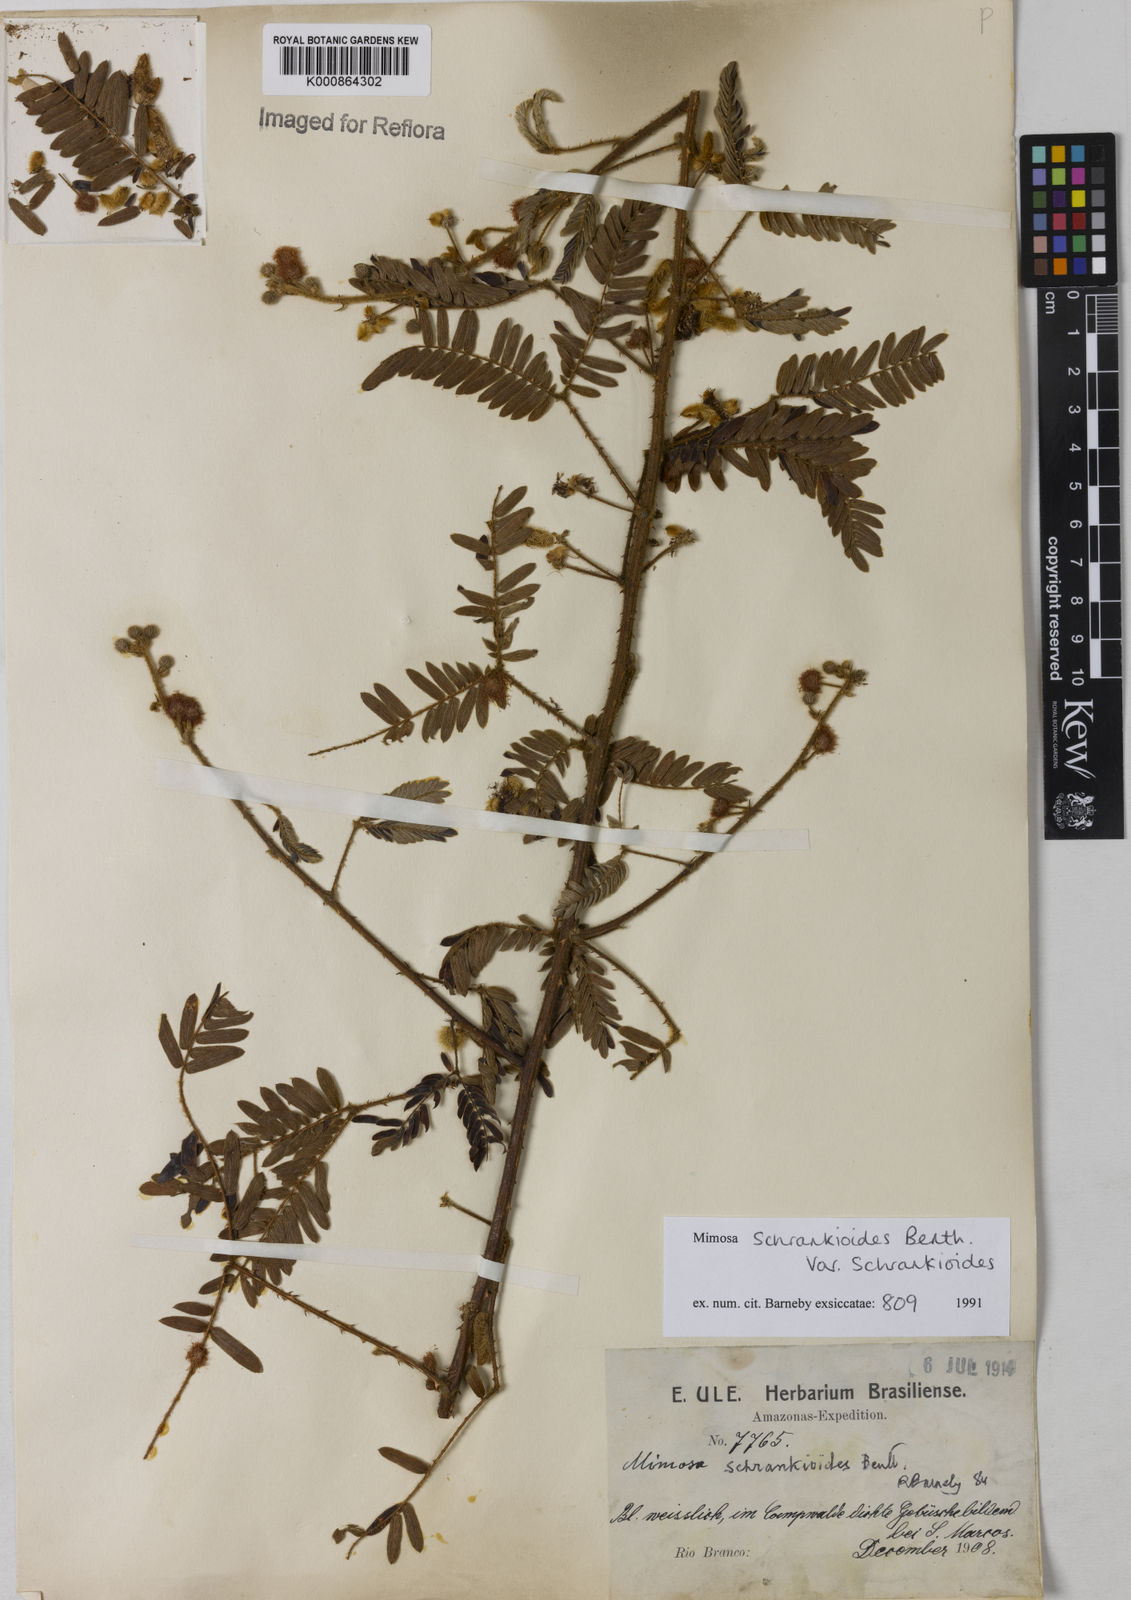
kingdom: Plantae
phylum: Tracheophyta
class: Magnoliopsida
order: Fabales
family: Fabaceae
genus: Mimosa
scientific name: Mimosa schrankioides
